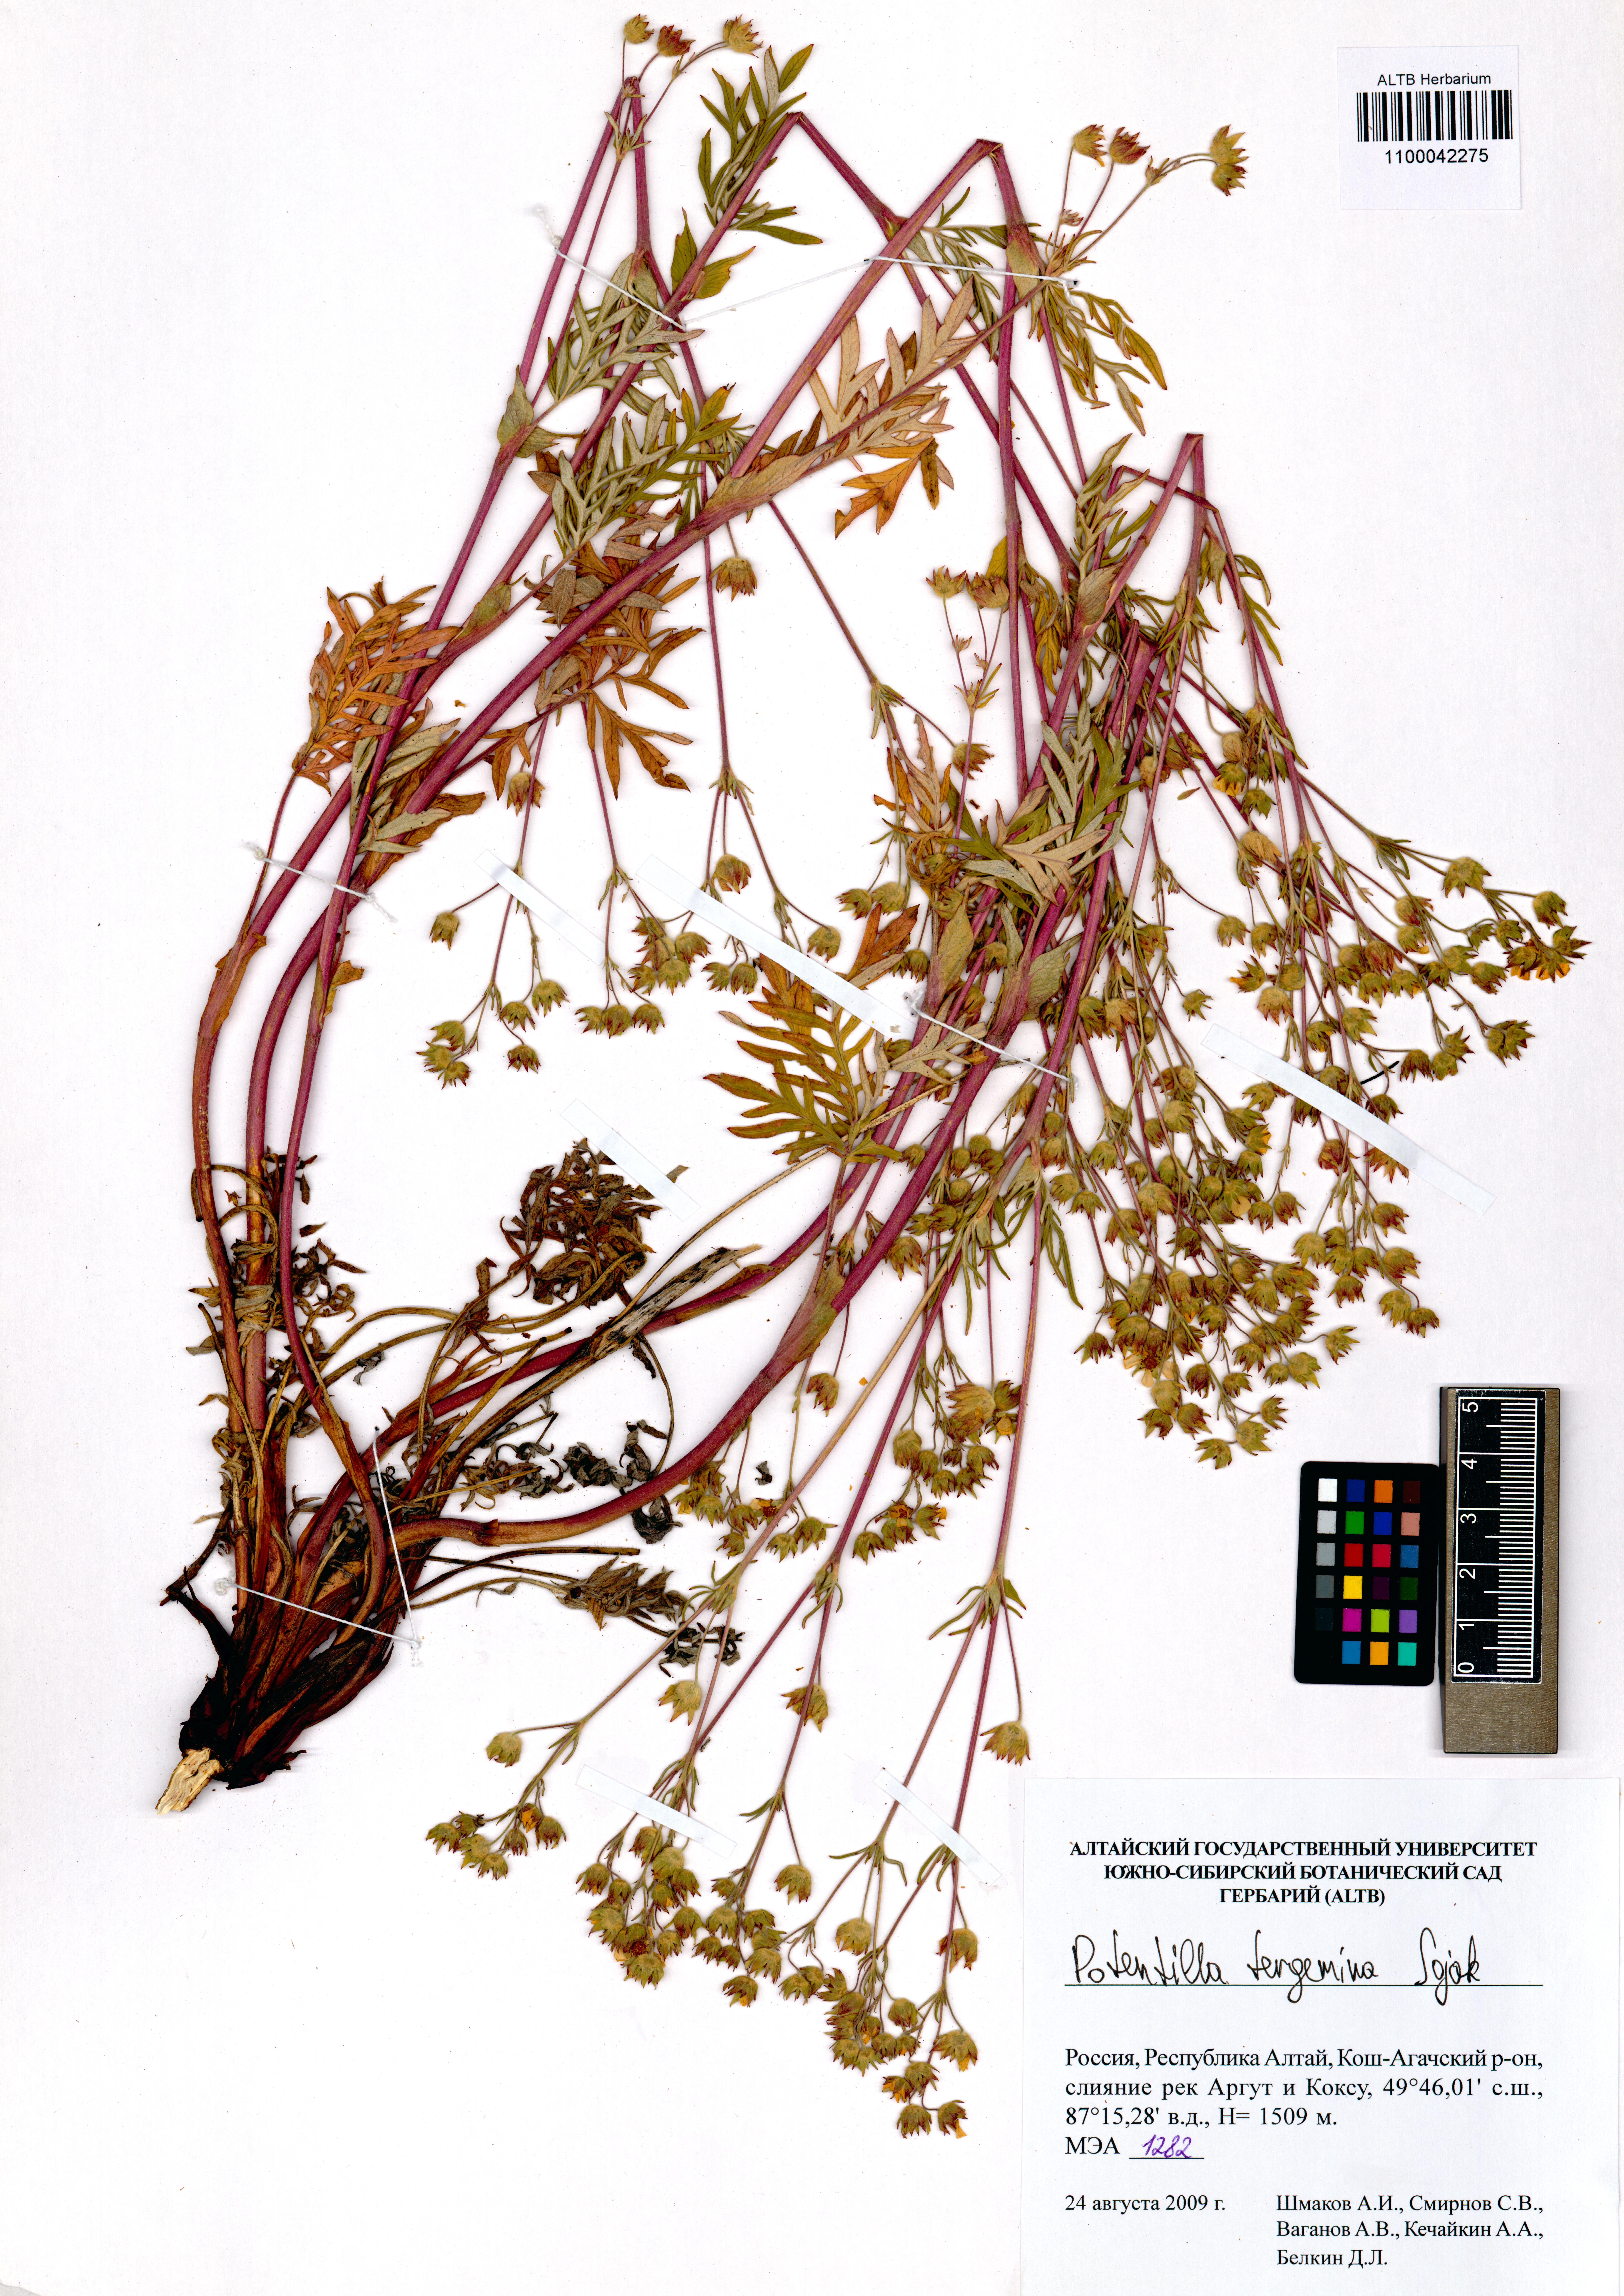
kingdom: Plantae
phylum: Tracheophyta
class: Magnoliopsida
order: Rosales
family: Rosaceae
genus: Potentilla
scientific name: Potentilla tergemina
